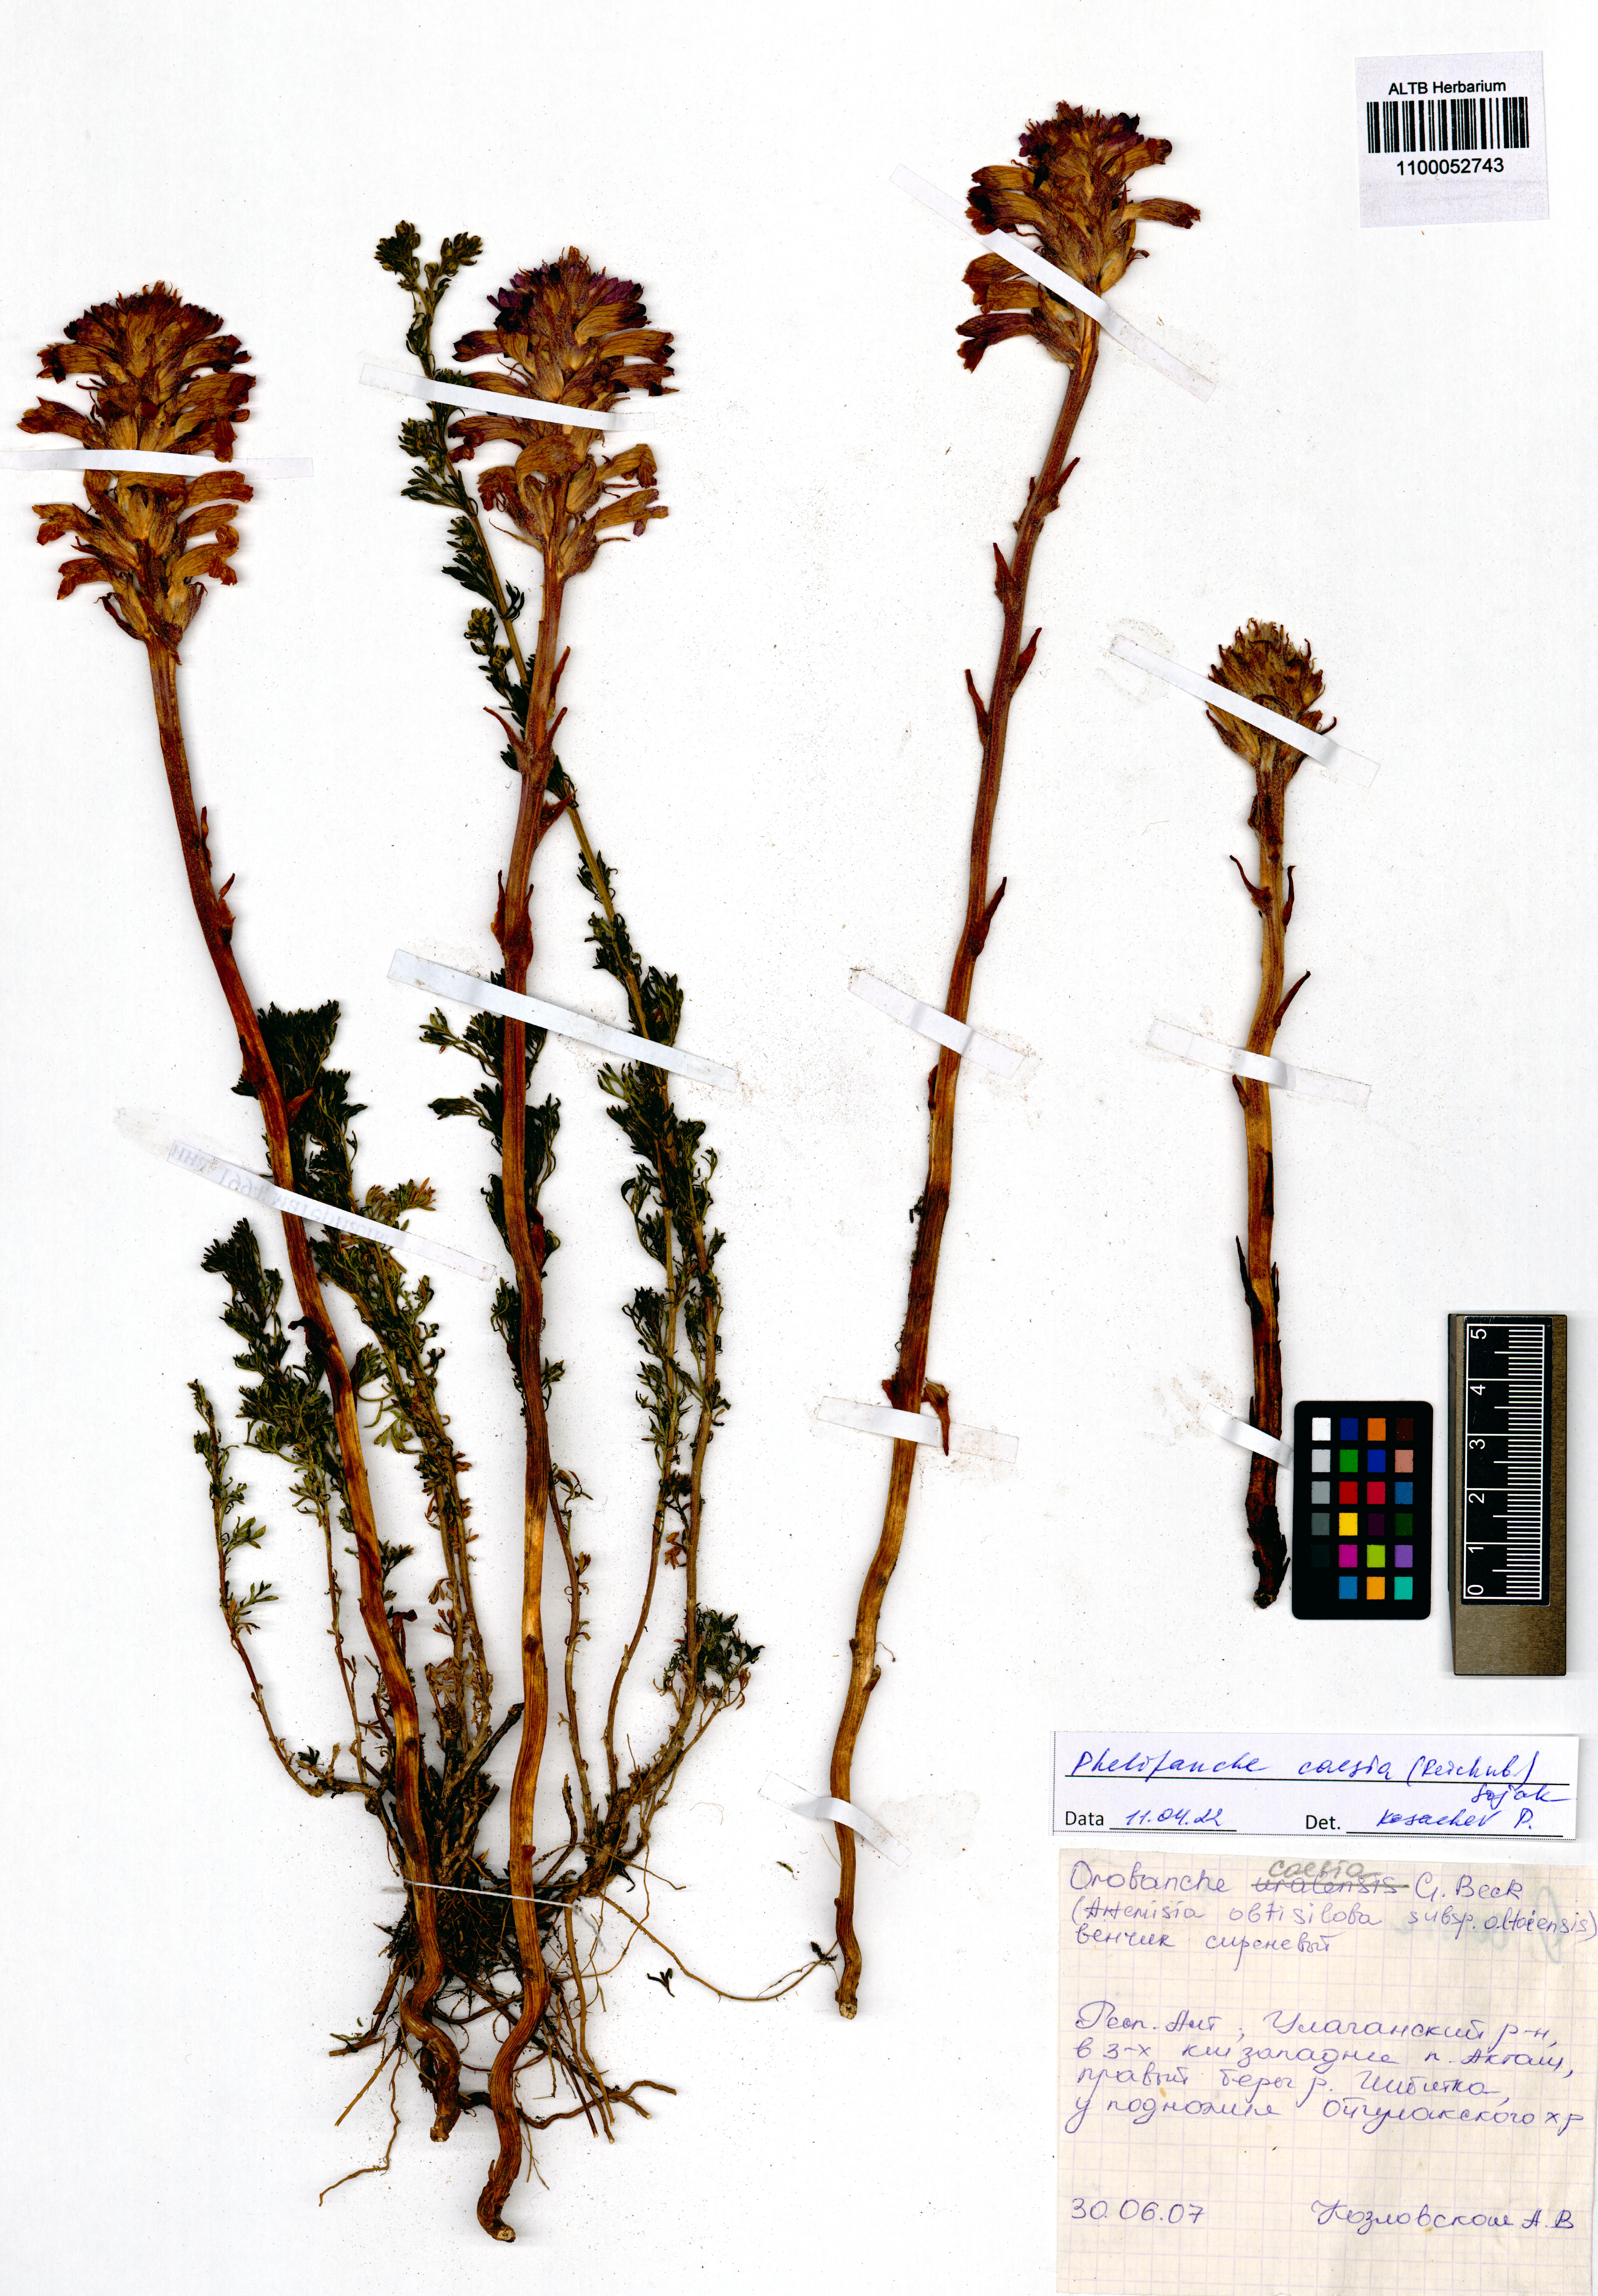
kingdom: Plantae
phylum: Tracheophyta
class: Magnoliopsida
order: Lamiales
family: Orobanchaceae
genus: Phelipanche
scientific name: Phelipanche caesia
